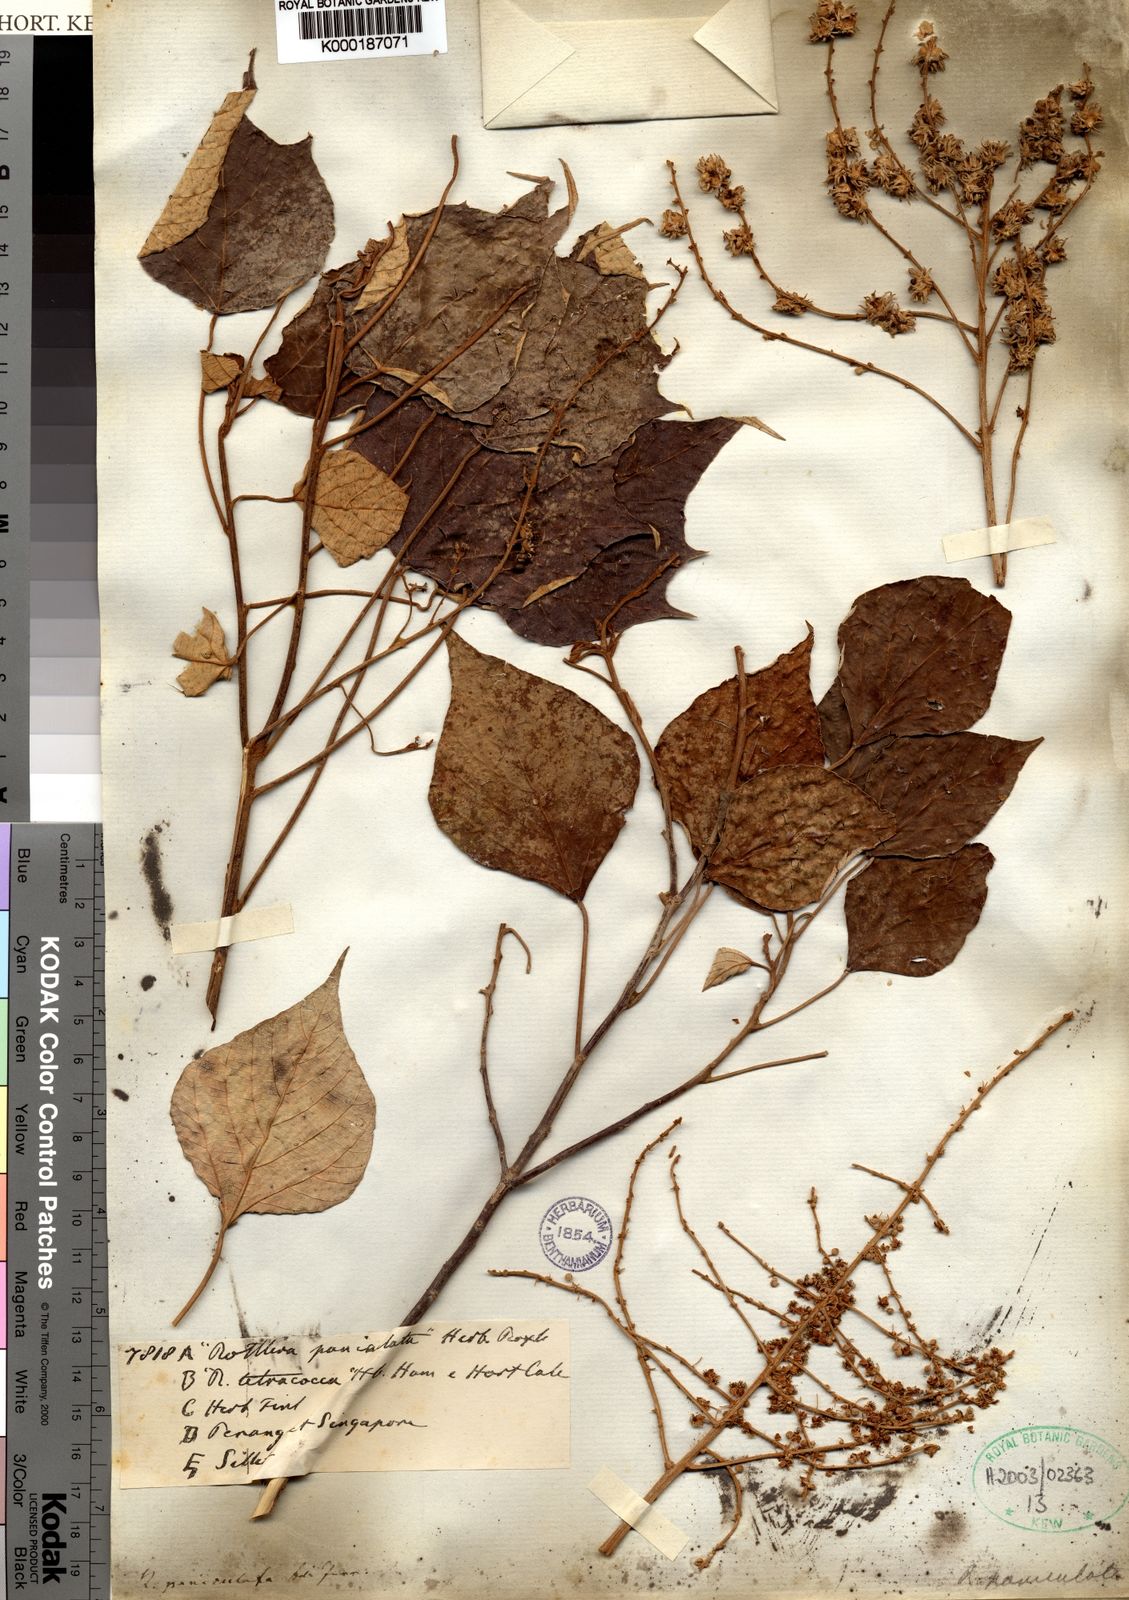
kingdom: Plantae
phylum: Tracheophyta
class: Magnoliopsida
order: Malpighiales
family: Euphorbiaceae
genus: Mallotus
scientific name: Mallotus paniculatus
